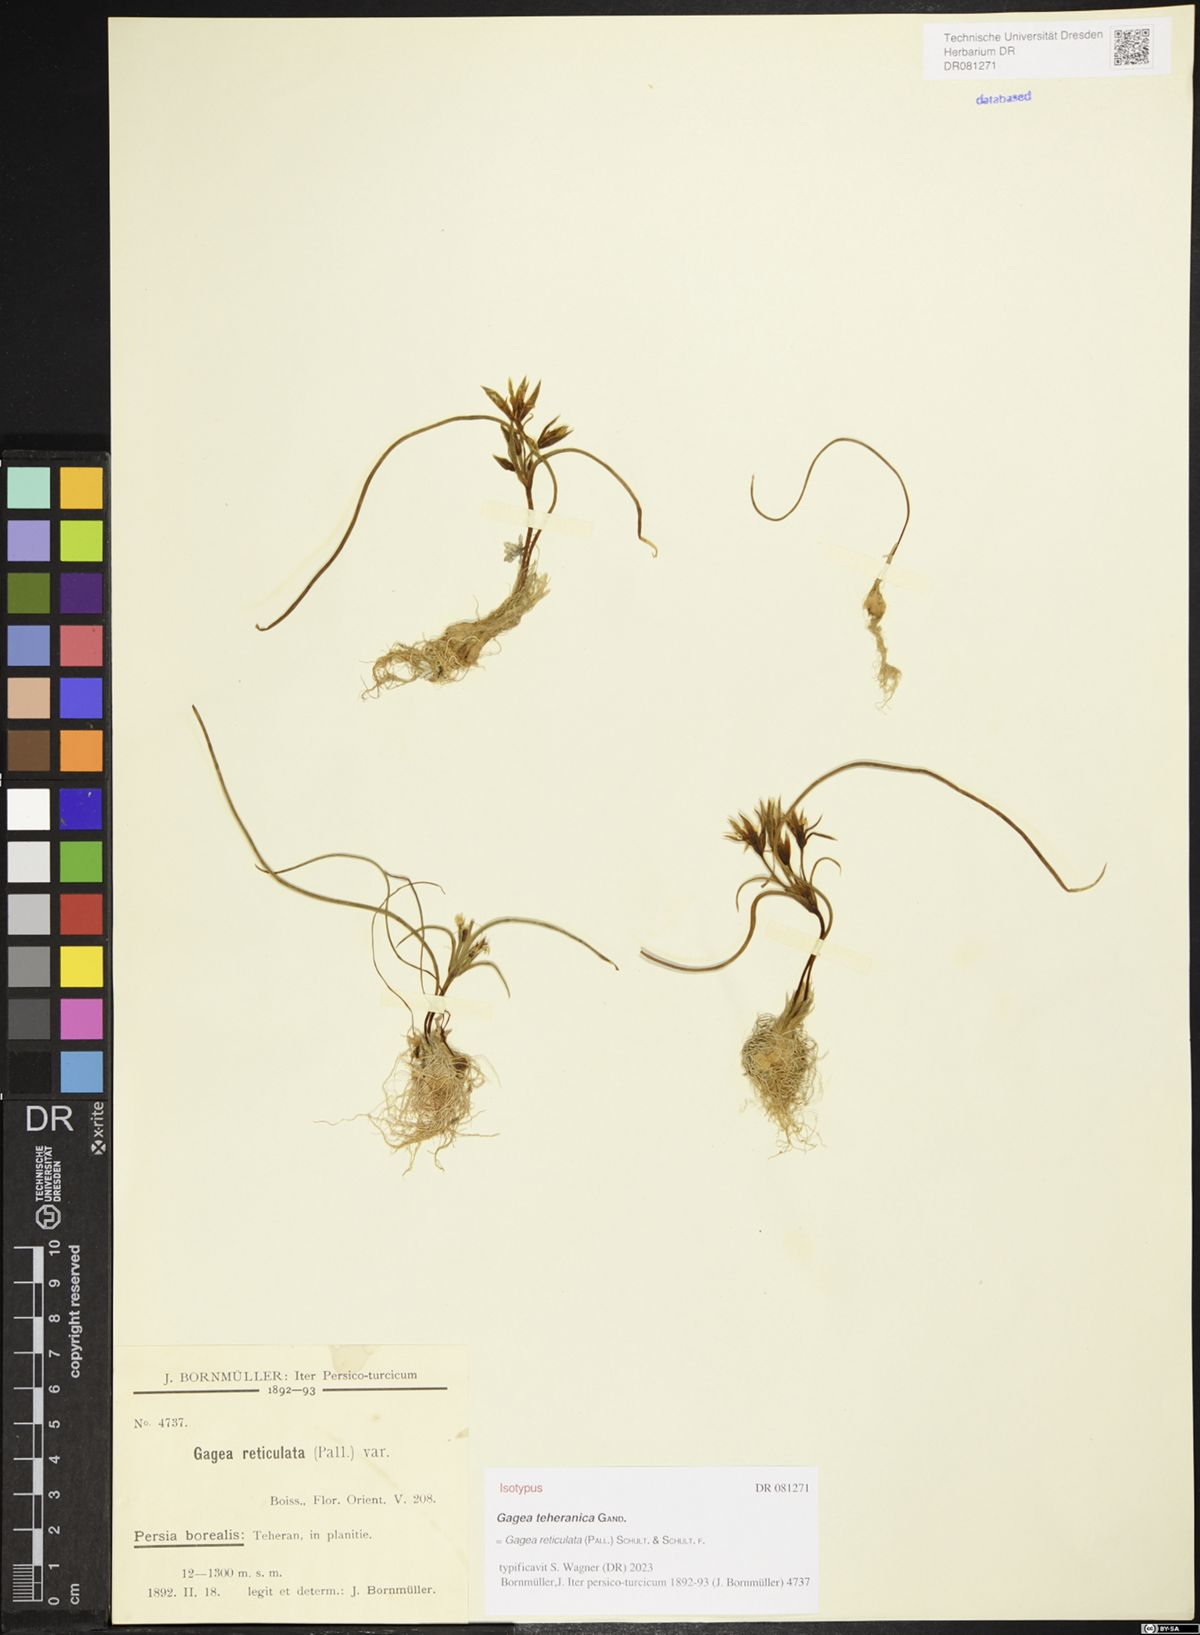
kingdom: Plantae
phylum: Tracheophyta
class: Liliopsida
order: Liliales
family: Liliaceae
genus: Gagea
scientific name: Gagea reticulata
